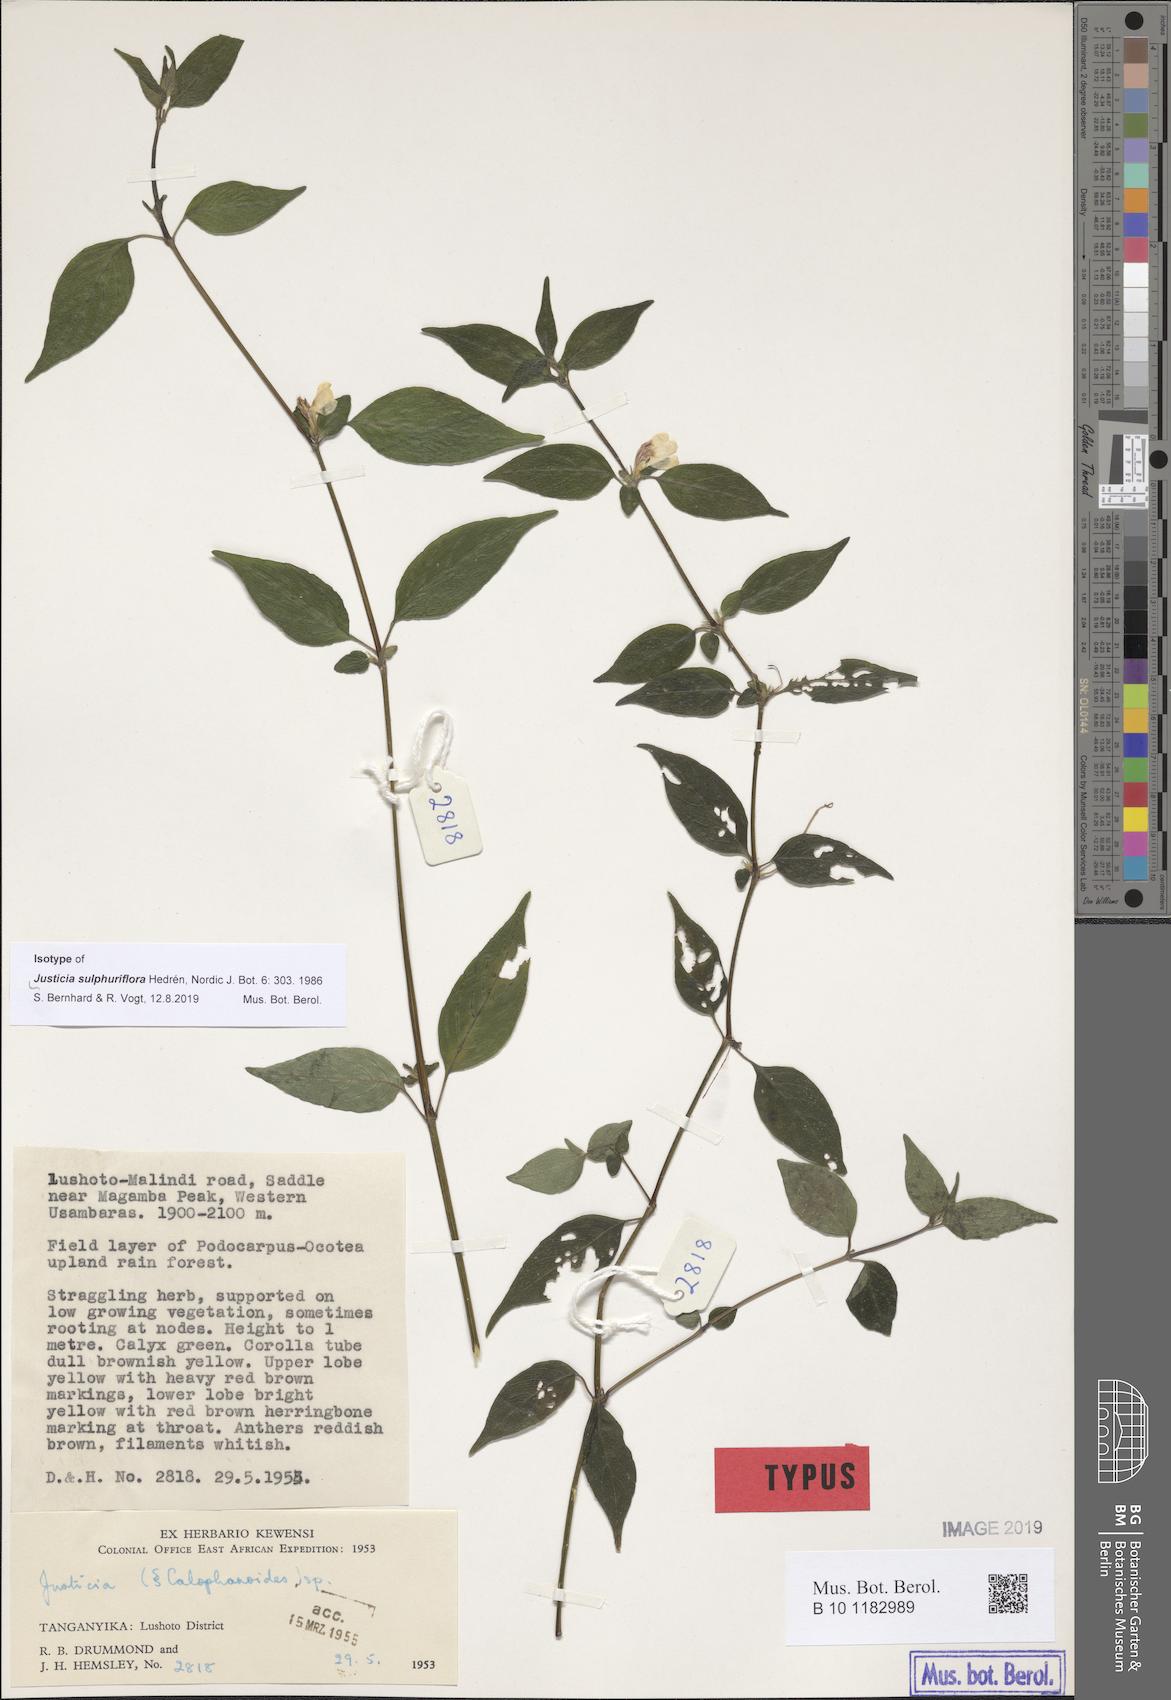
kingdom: Plantae
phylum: Tracheophyta
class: Magnoliopsida
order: Lamiales
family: Acanthaceae
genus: Justicia
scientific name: Justicia sulphuriflora
